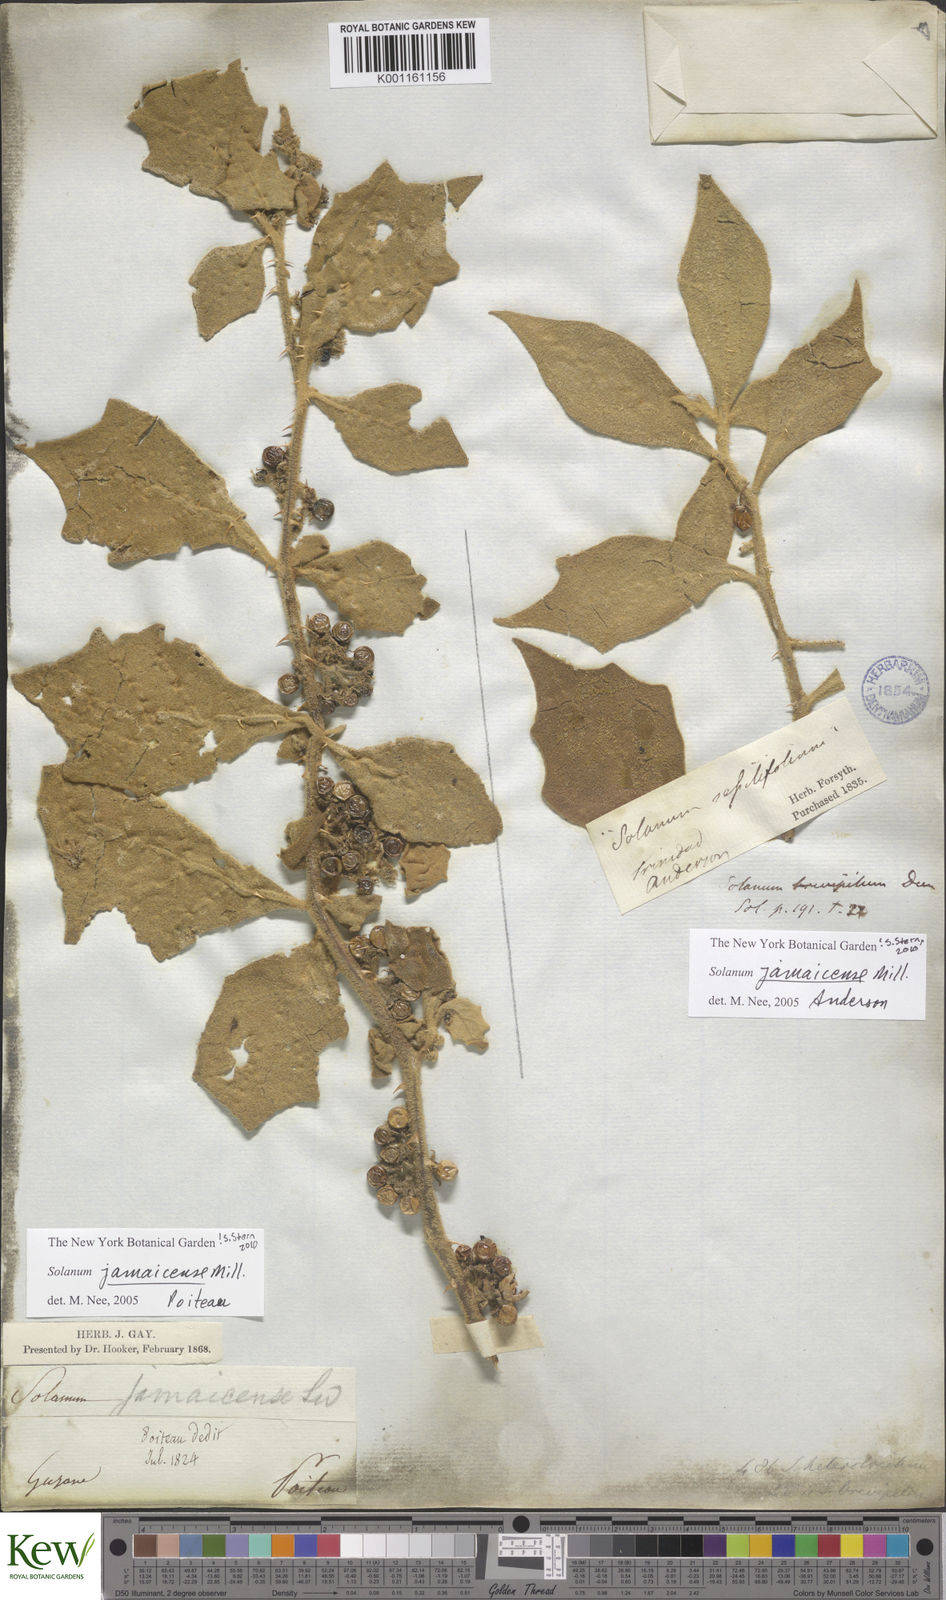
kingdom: Plantae
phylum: Tracheophyta
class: Magnoliopsida
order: Solanales
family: Solanaceae
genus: Solanum
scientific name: Solanum jamaicense
